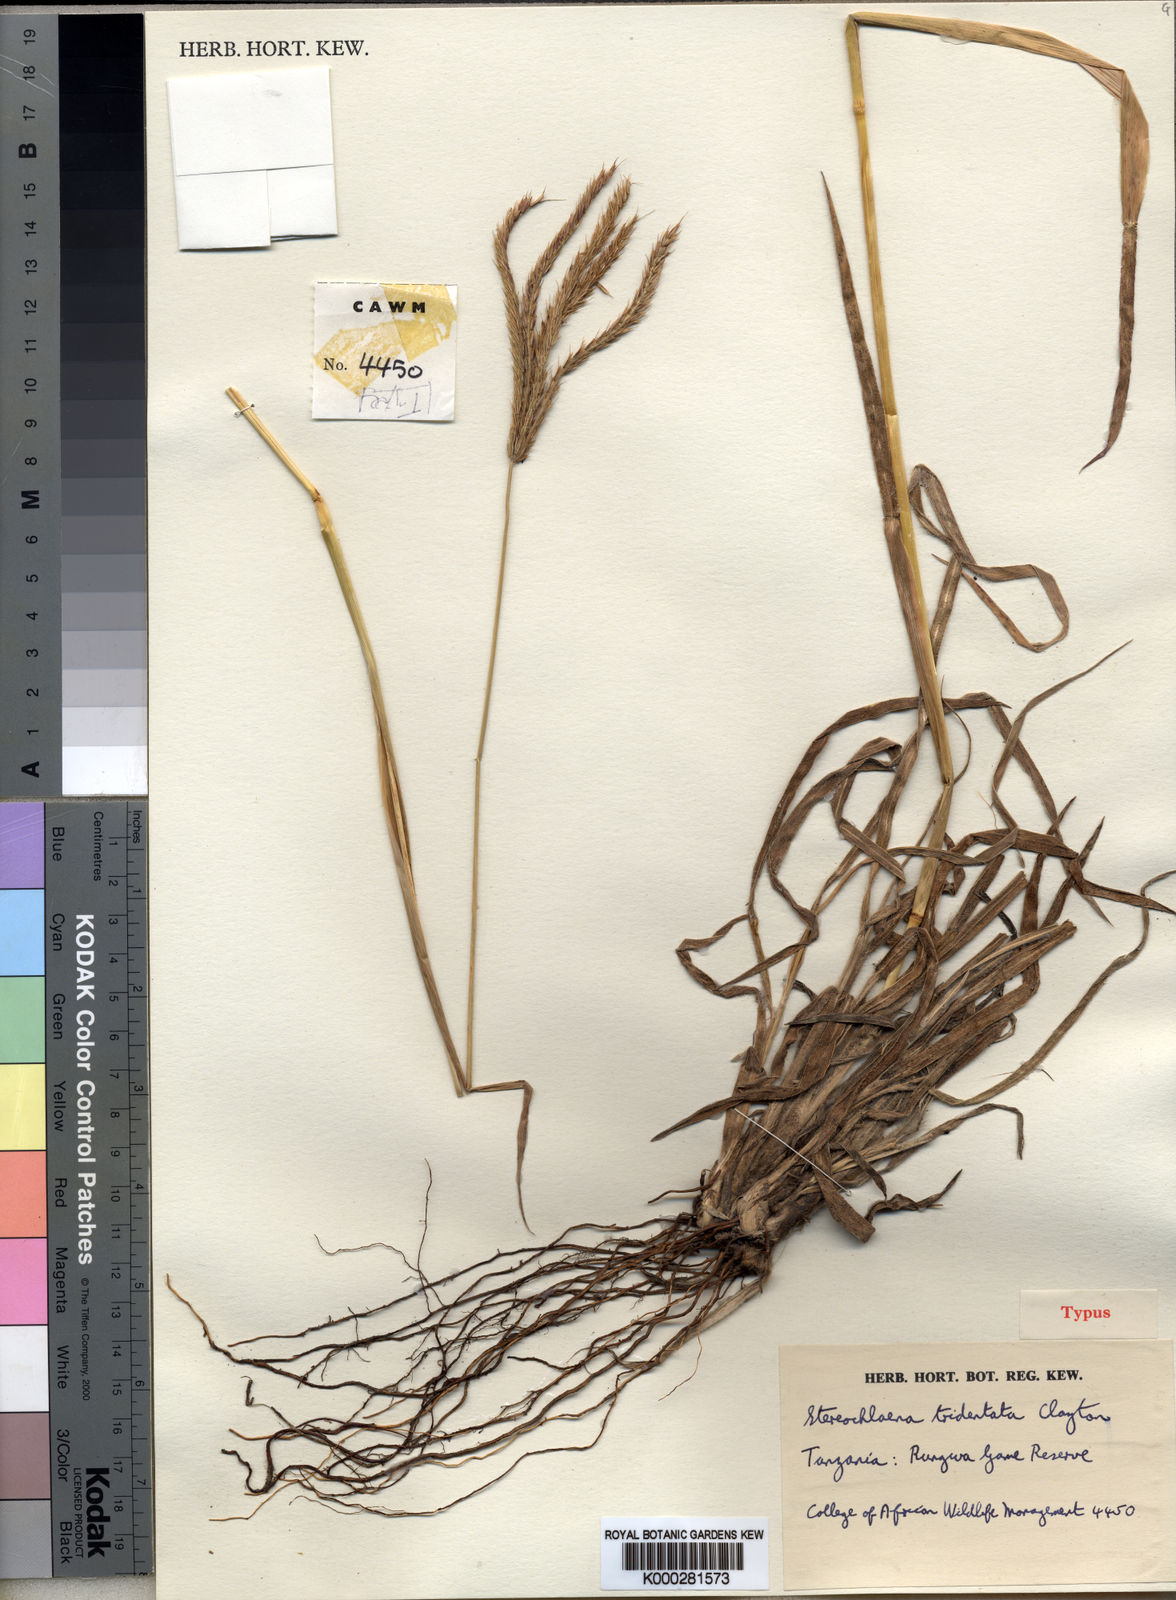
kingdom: Plantae
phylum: Tracheophyta
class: Liliopsida
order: Poales
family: Poaceae
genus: Stereochlaena
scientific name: Stereochlaena tridentata
